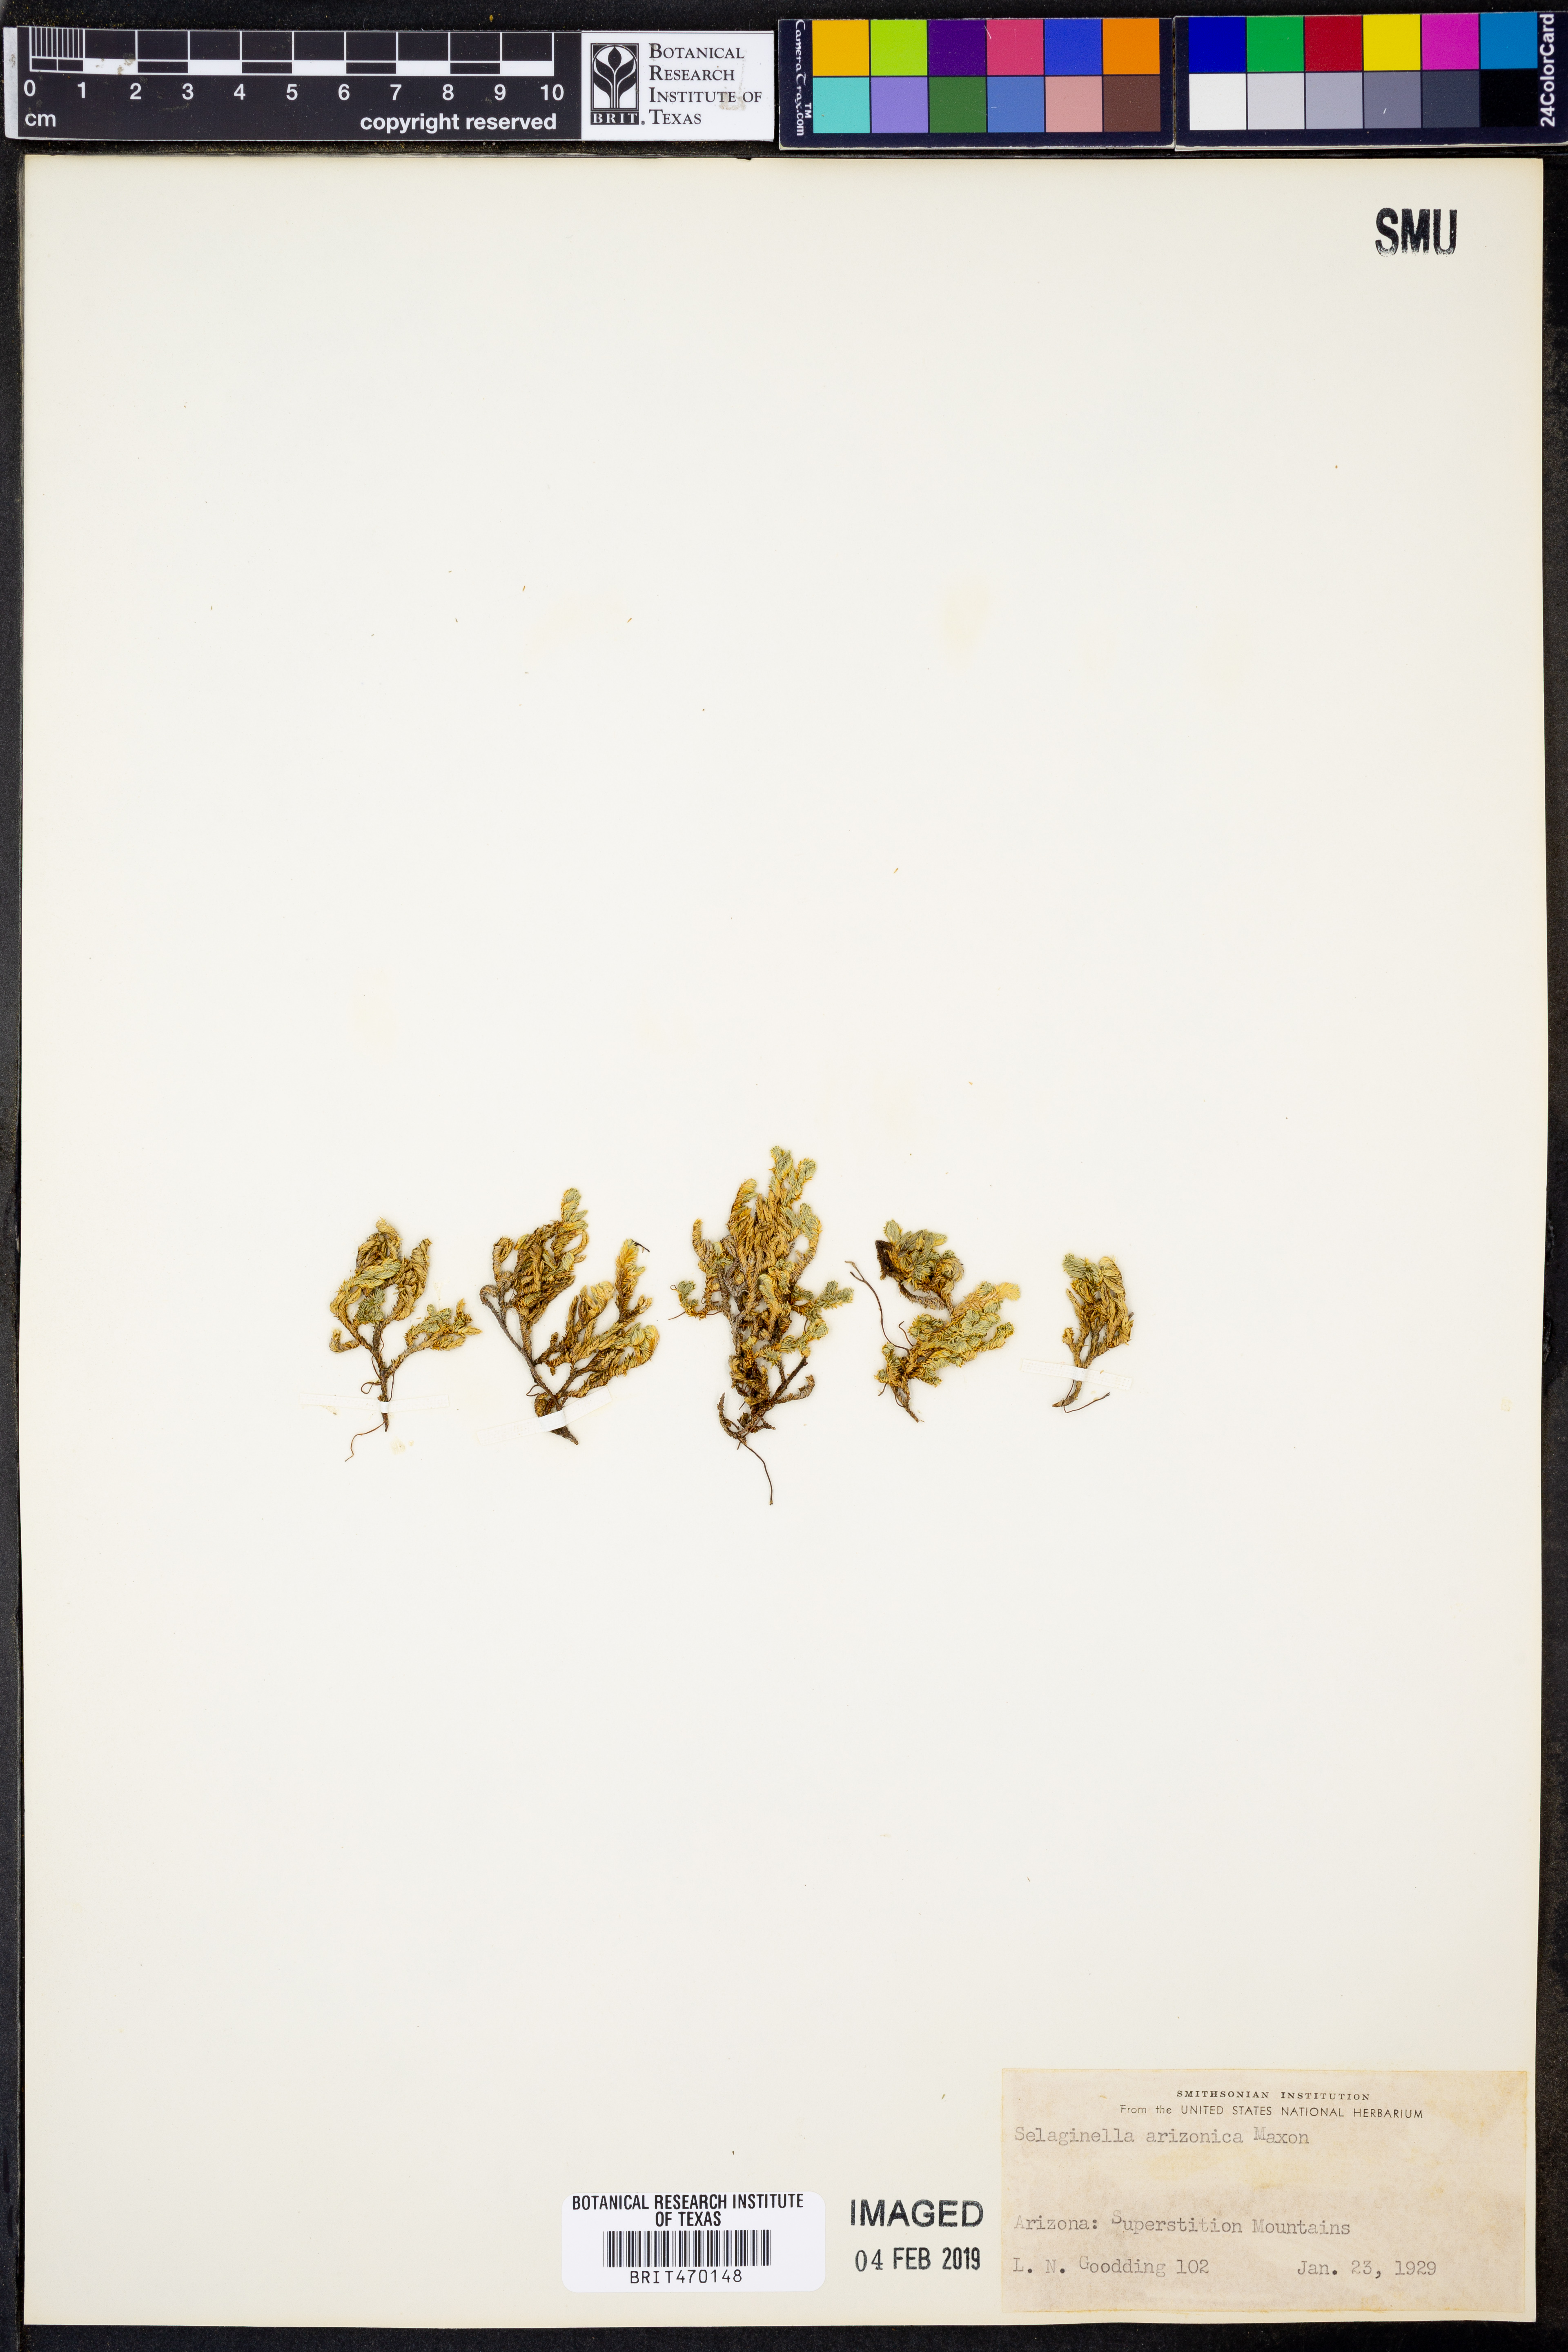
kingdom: Plantae
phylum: Tracheophyta
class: Lycopodiopsida
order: Selaginellales
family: Selaginellaceae
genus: Selaginella
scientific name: Selaginella arizonica
